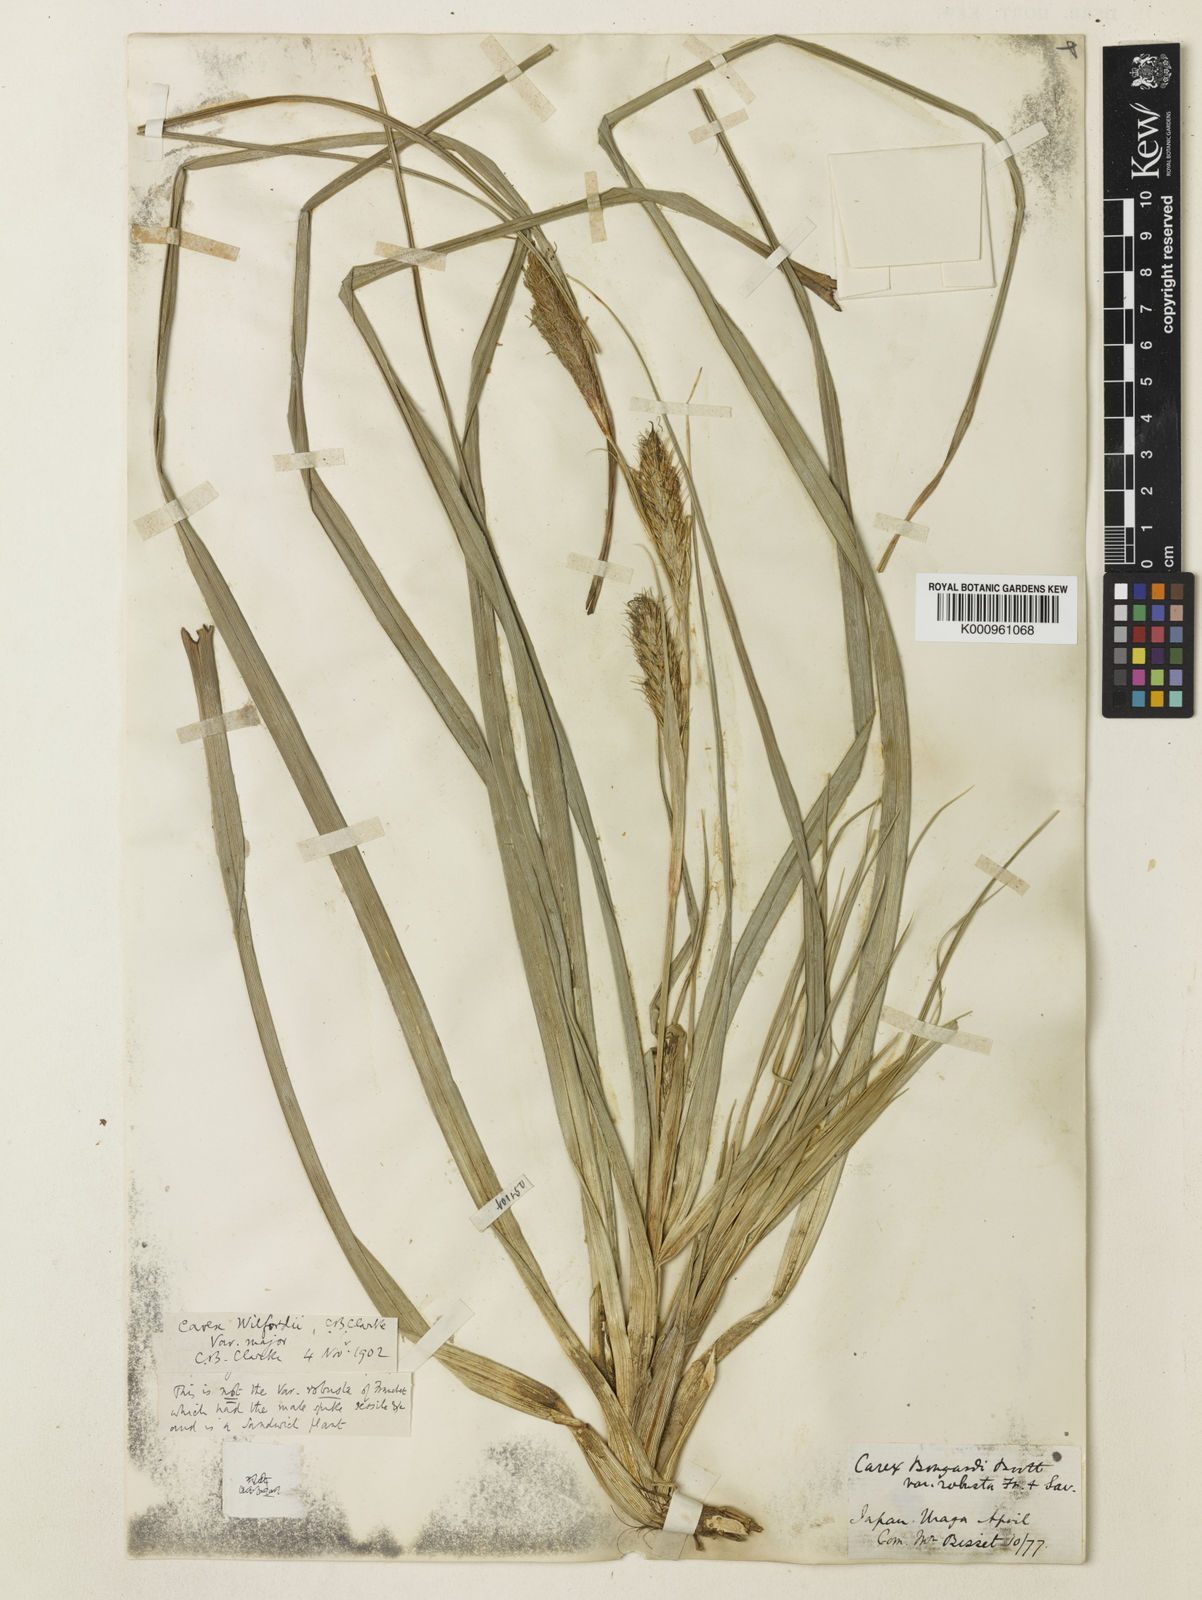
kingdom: Plantae
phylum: Tracheophyta
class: Liliopsida
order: Poales
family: Cyperaceae
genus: Carex
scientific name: Carex wahuensis
